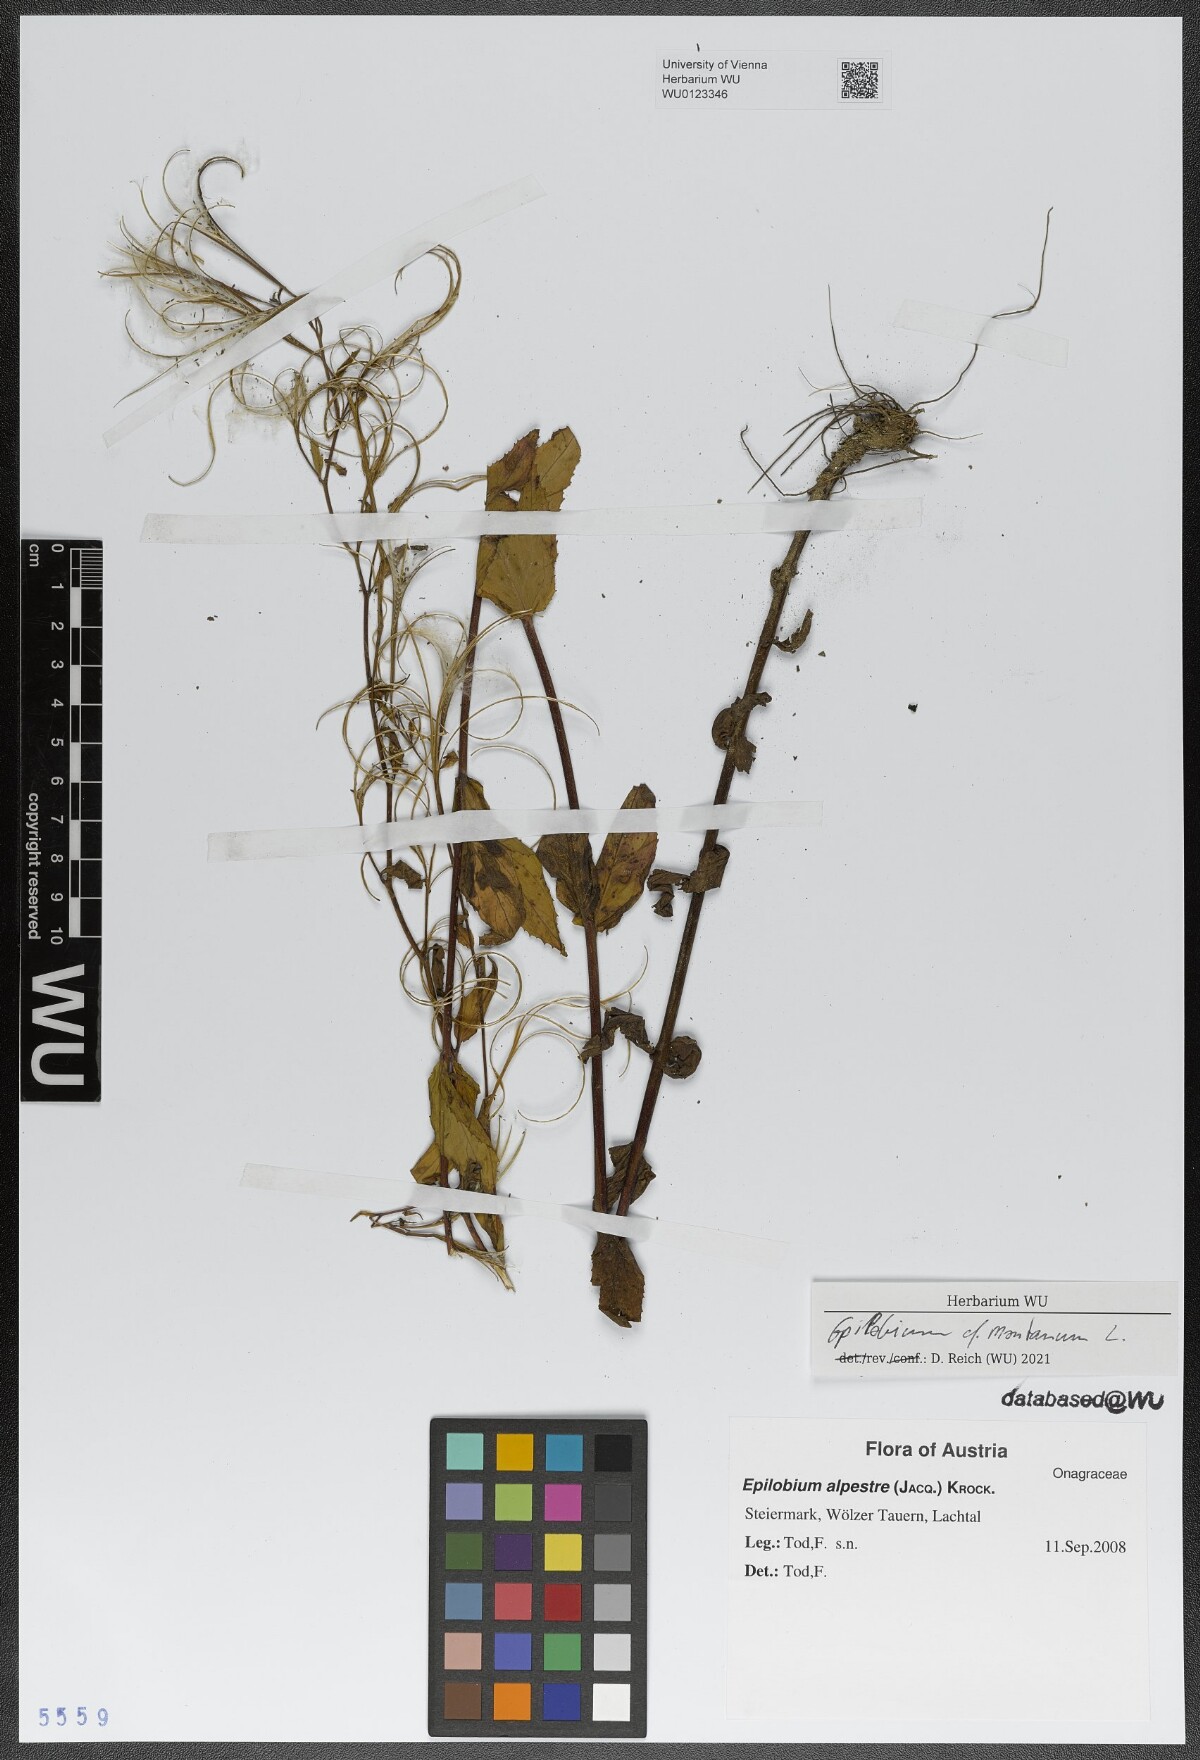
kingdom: Plantae
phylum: Tracheophyta
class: Magnoliopsida
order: Myrtales
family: Onagraceae
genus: Epilobium
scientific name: Epilobium montanum
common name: Broad-leaved willowherb
